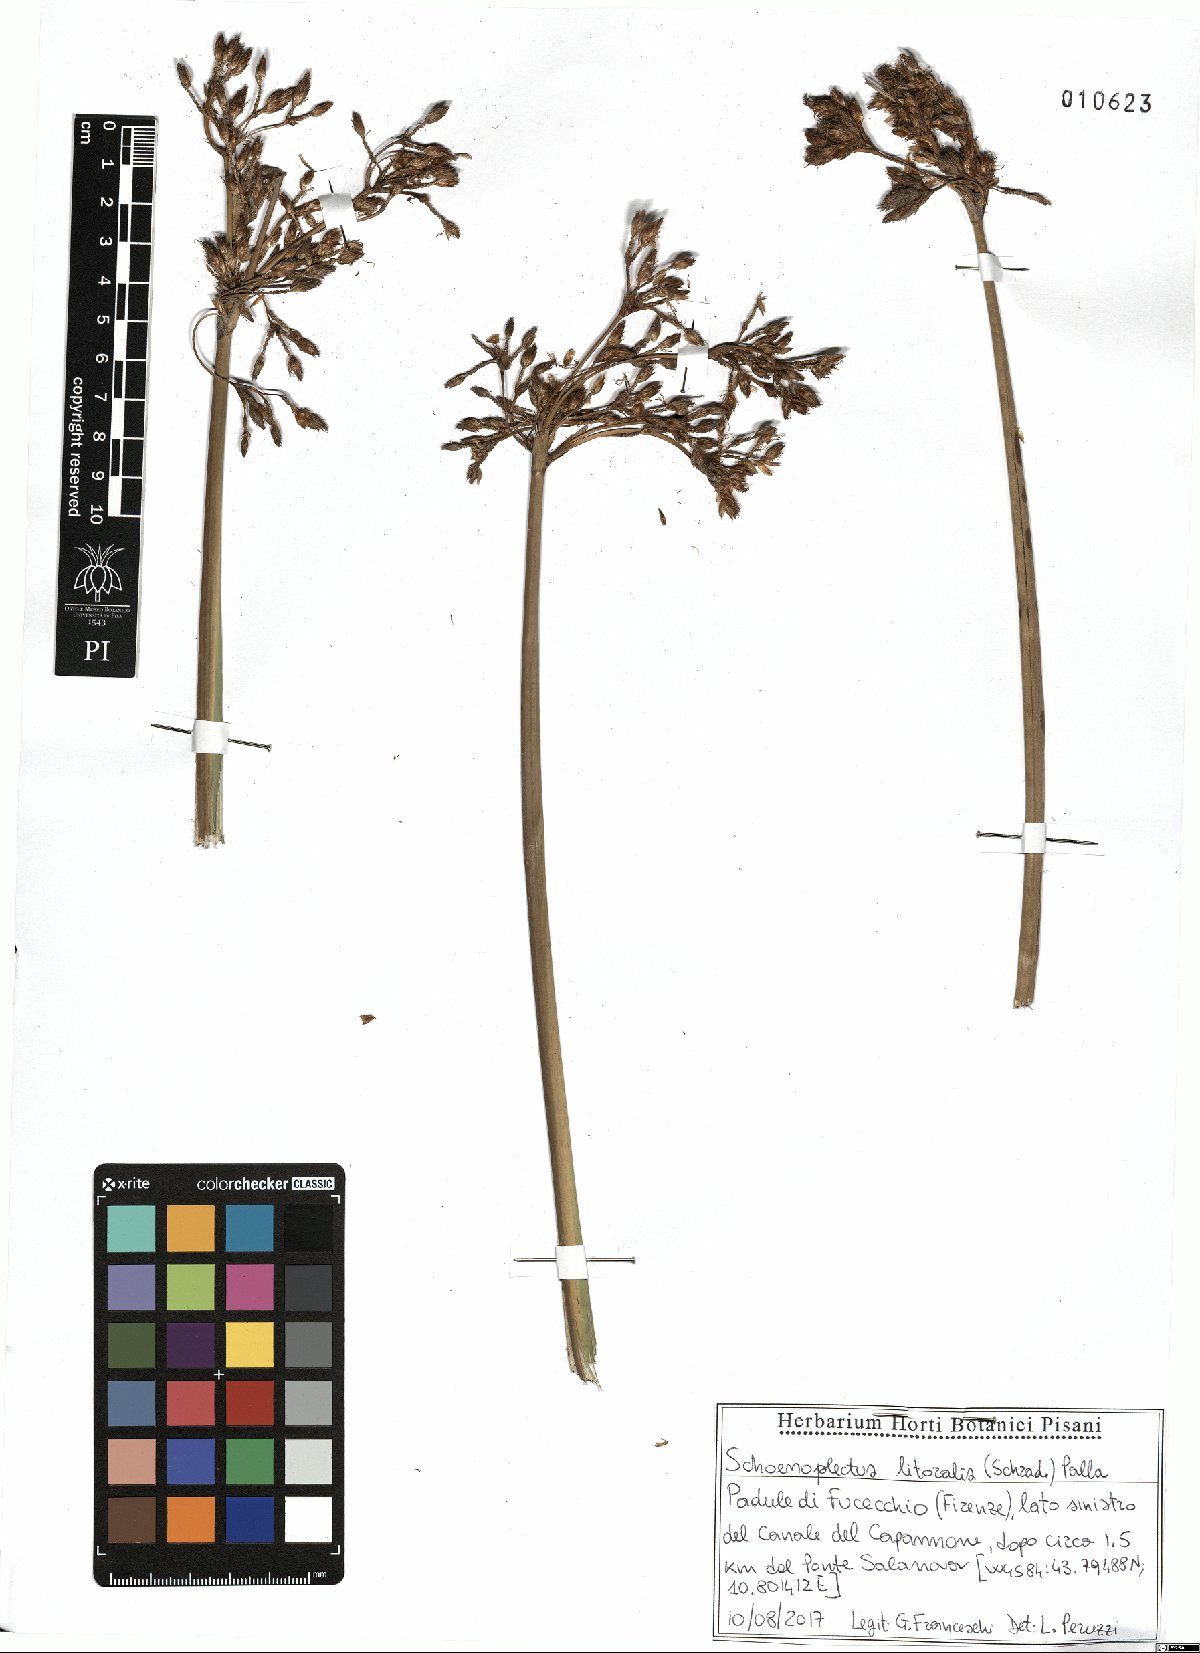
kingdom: Plantae
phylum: Tracheophyta
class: Liliopsida
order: Poales
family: Cyperaceae
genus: Schoenoplectus
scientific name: Schoenoplectus litoralis
